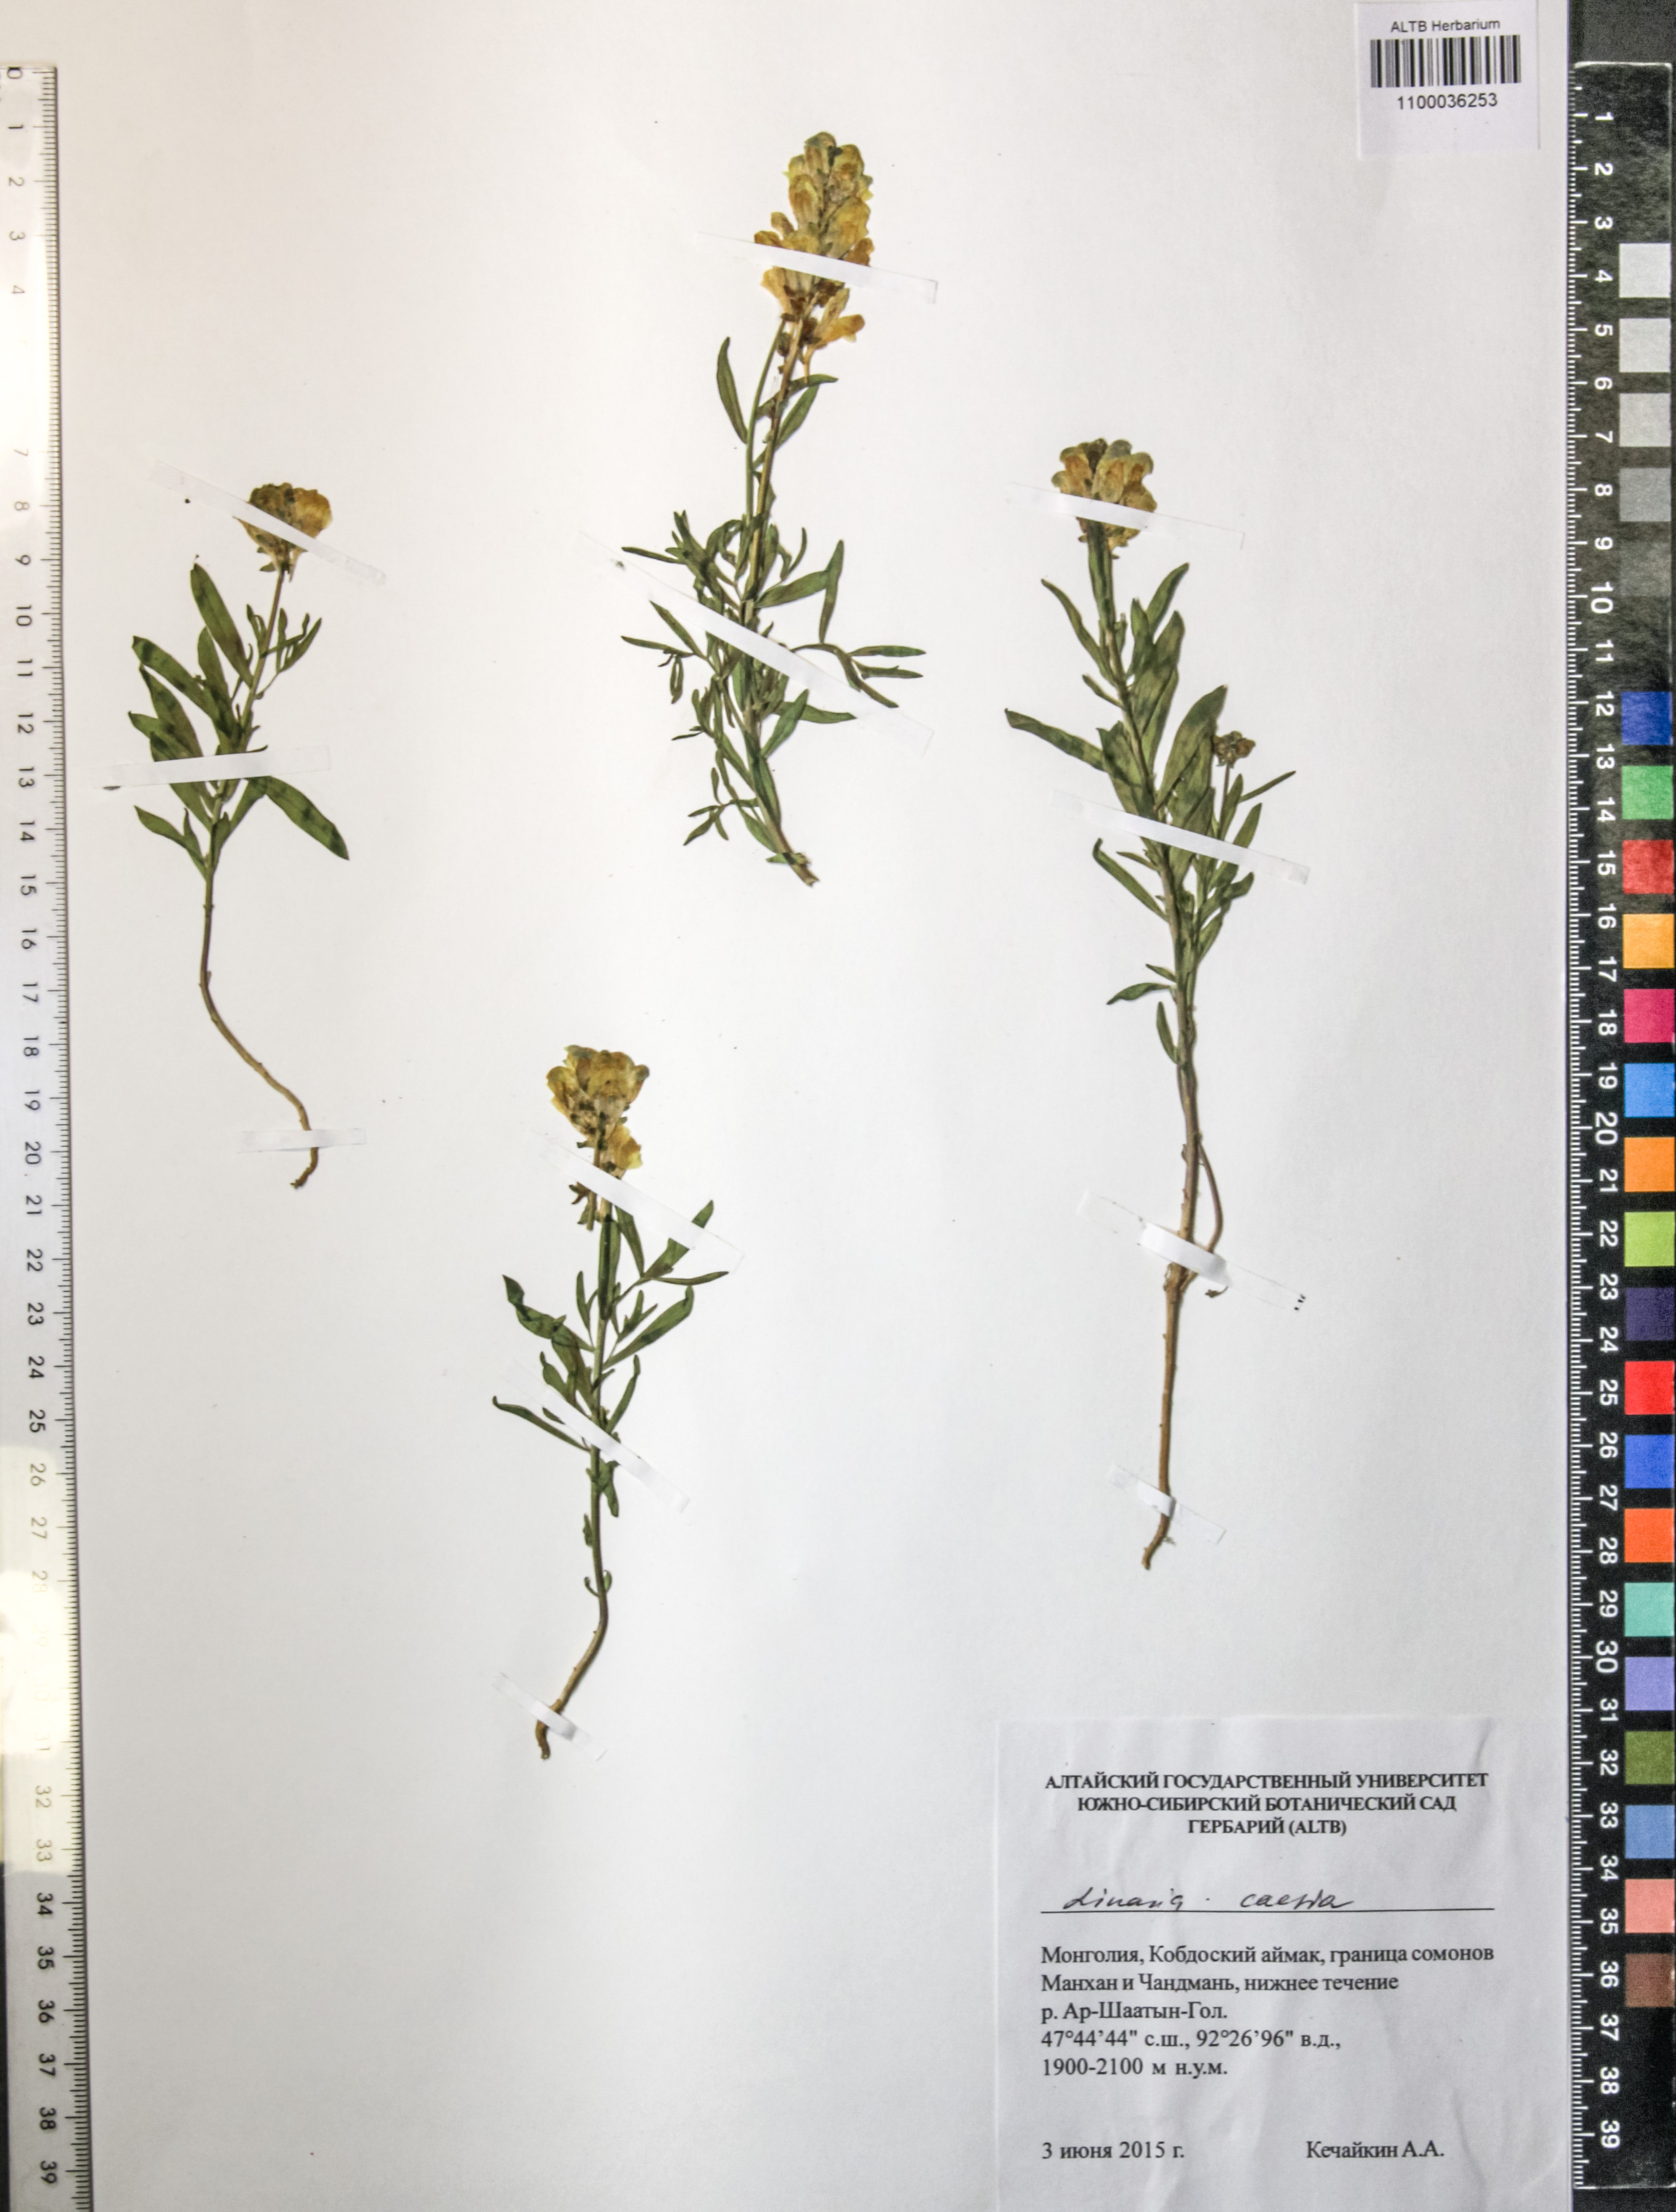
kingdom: Plantae
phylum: Tracheophyta
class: Magnoliopsida
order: Lamiales
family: Plantaginaceae
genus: Linaria
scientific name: Linaria caesia
